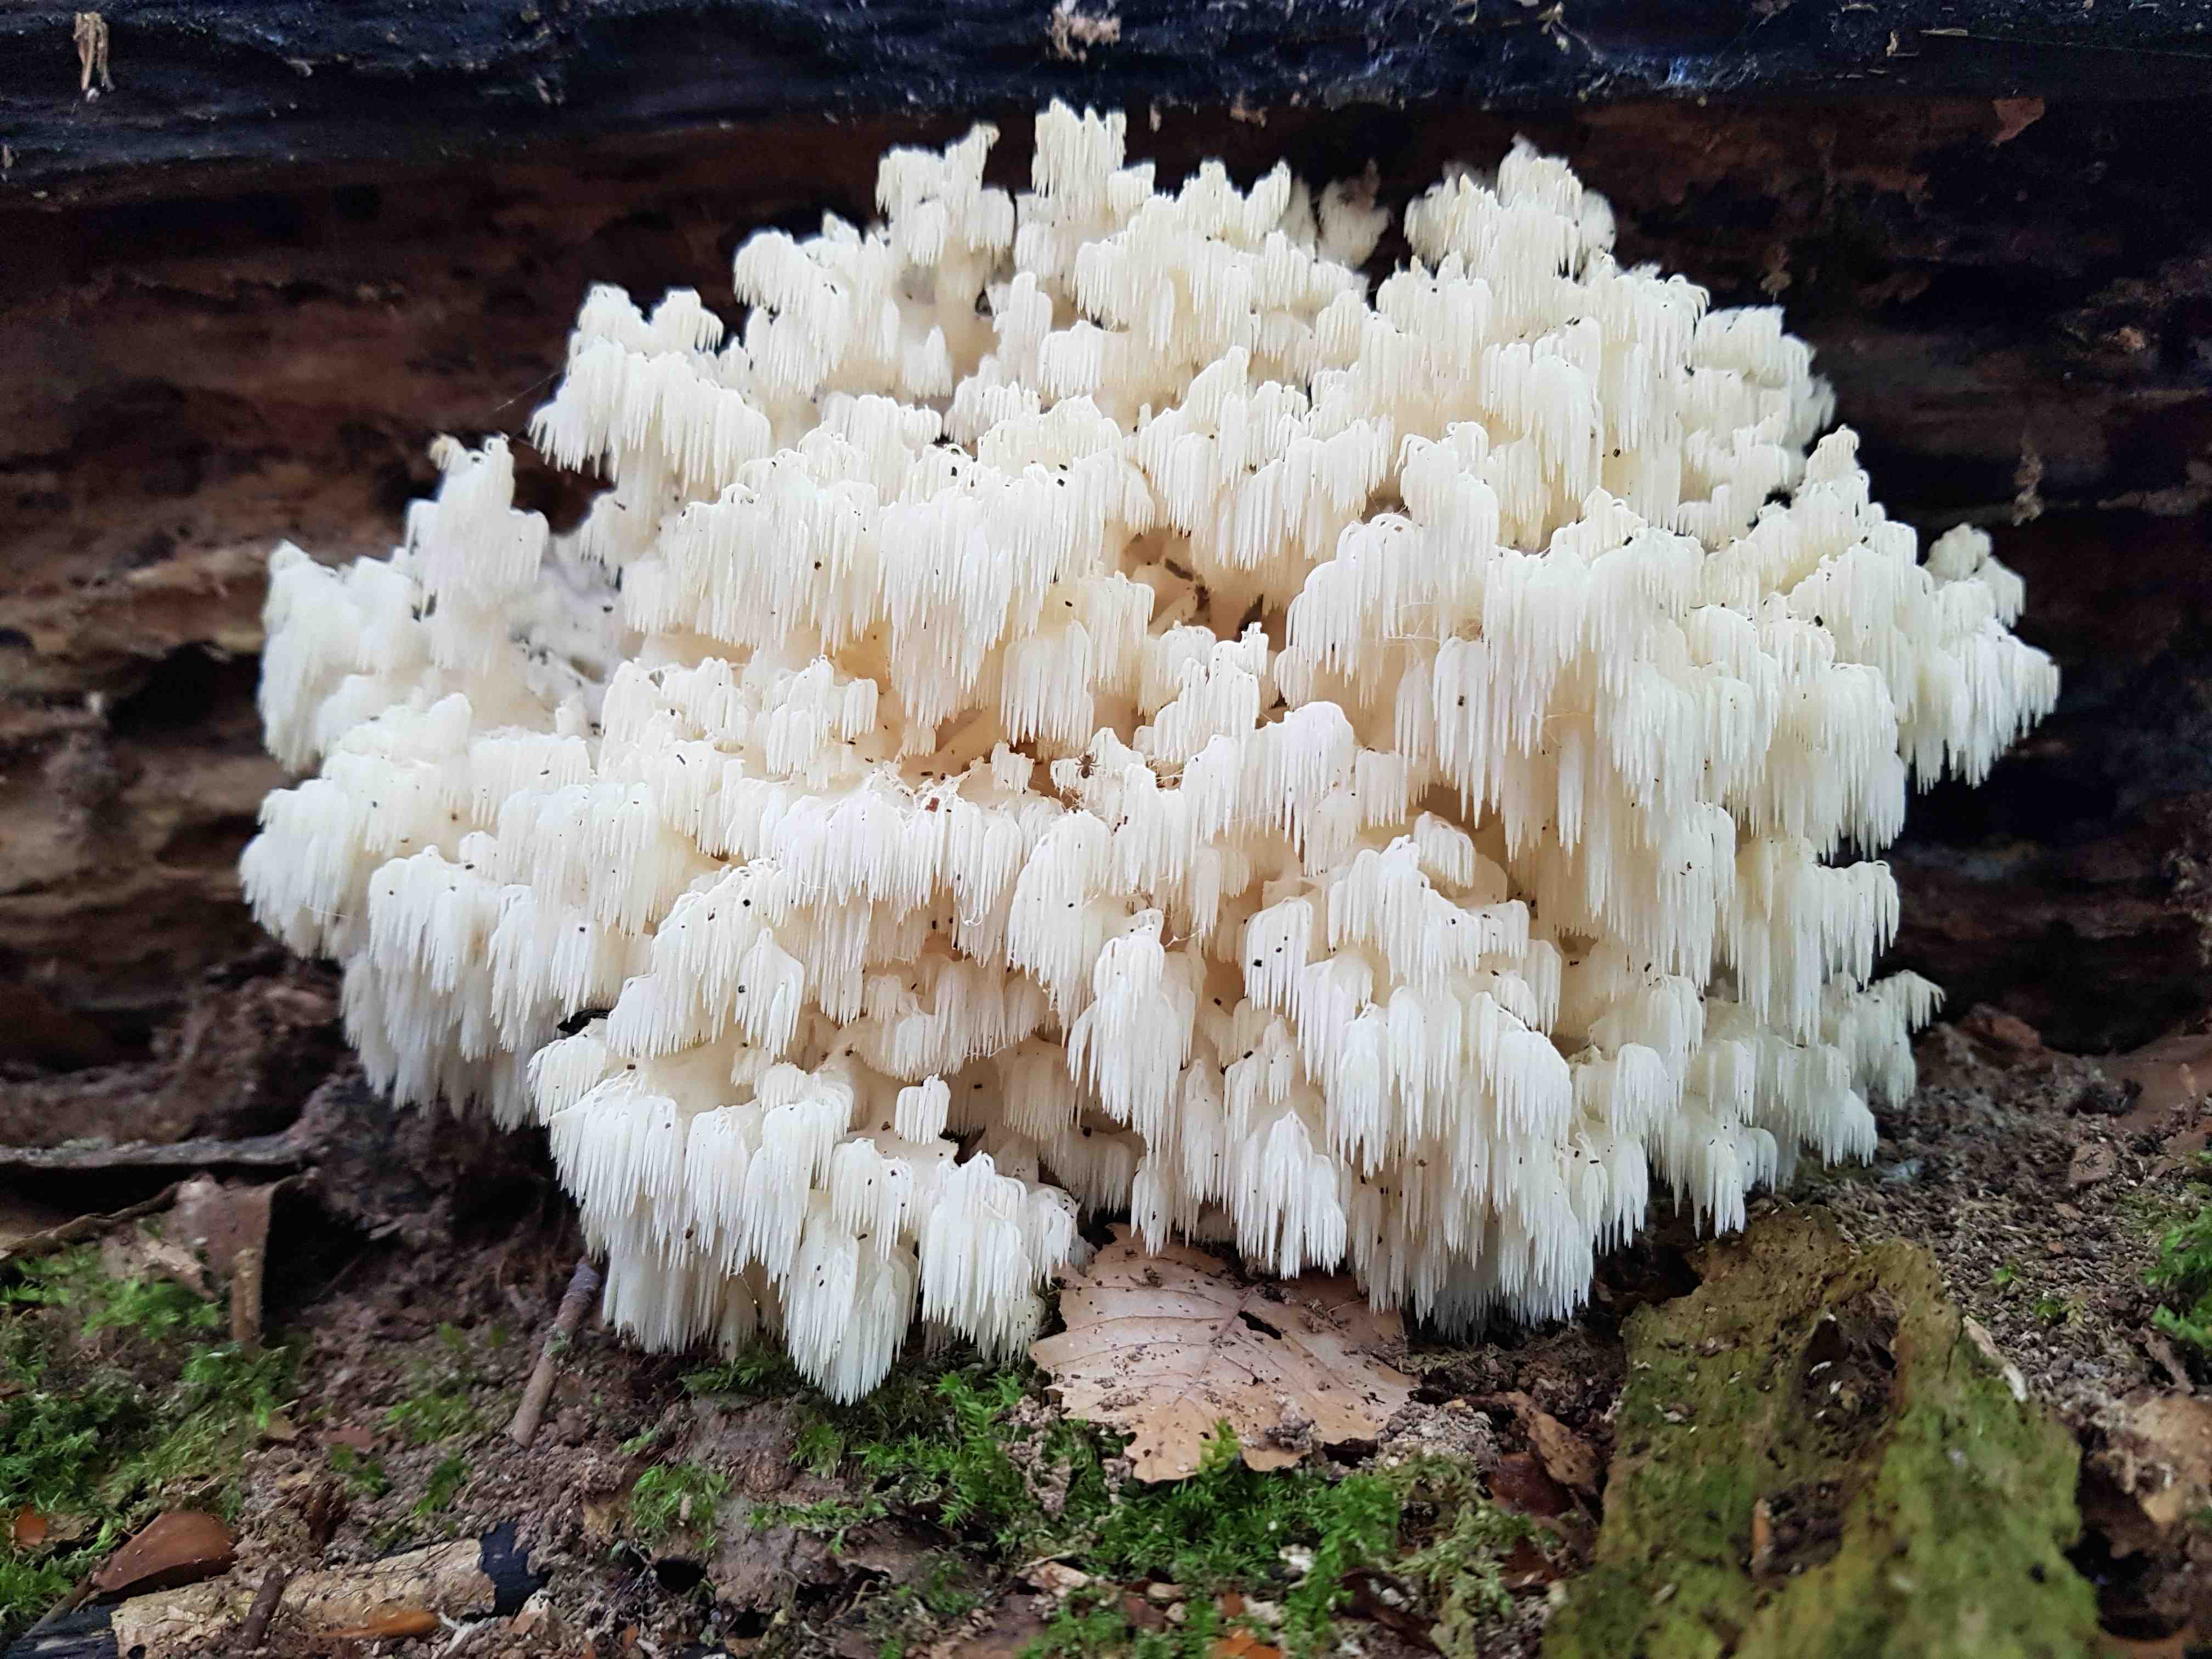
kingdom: Fungi
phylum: Basidiomycota
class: Agaricomycetes
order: Russulales
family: Hericiaceae
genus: Hericium
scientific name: Hericium coralloides
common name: koralpigsvamp
